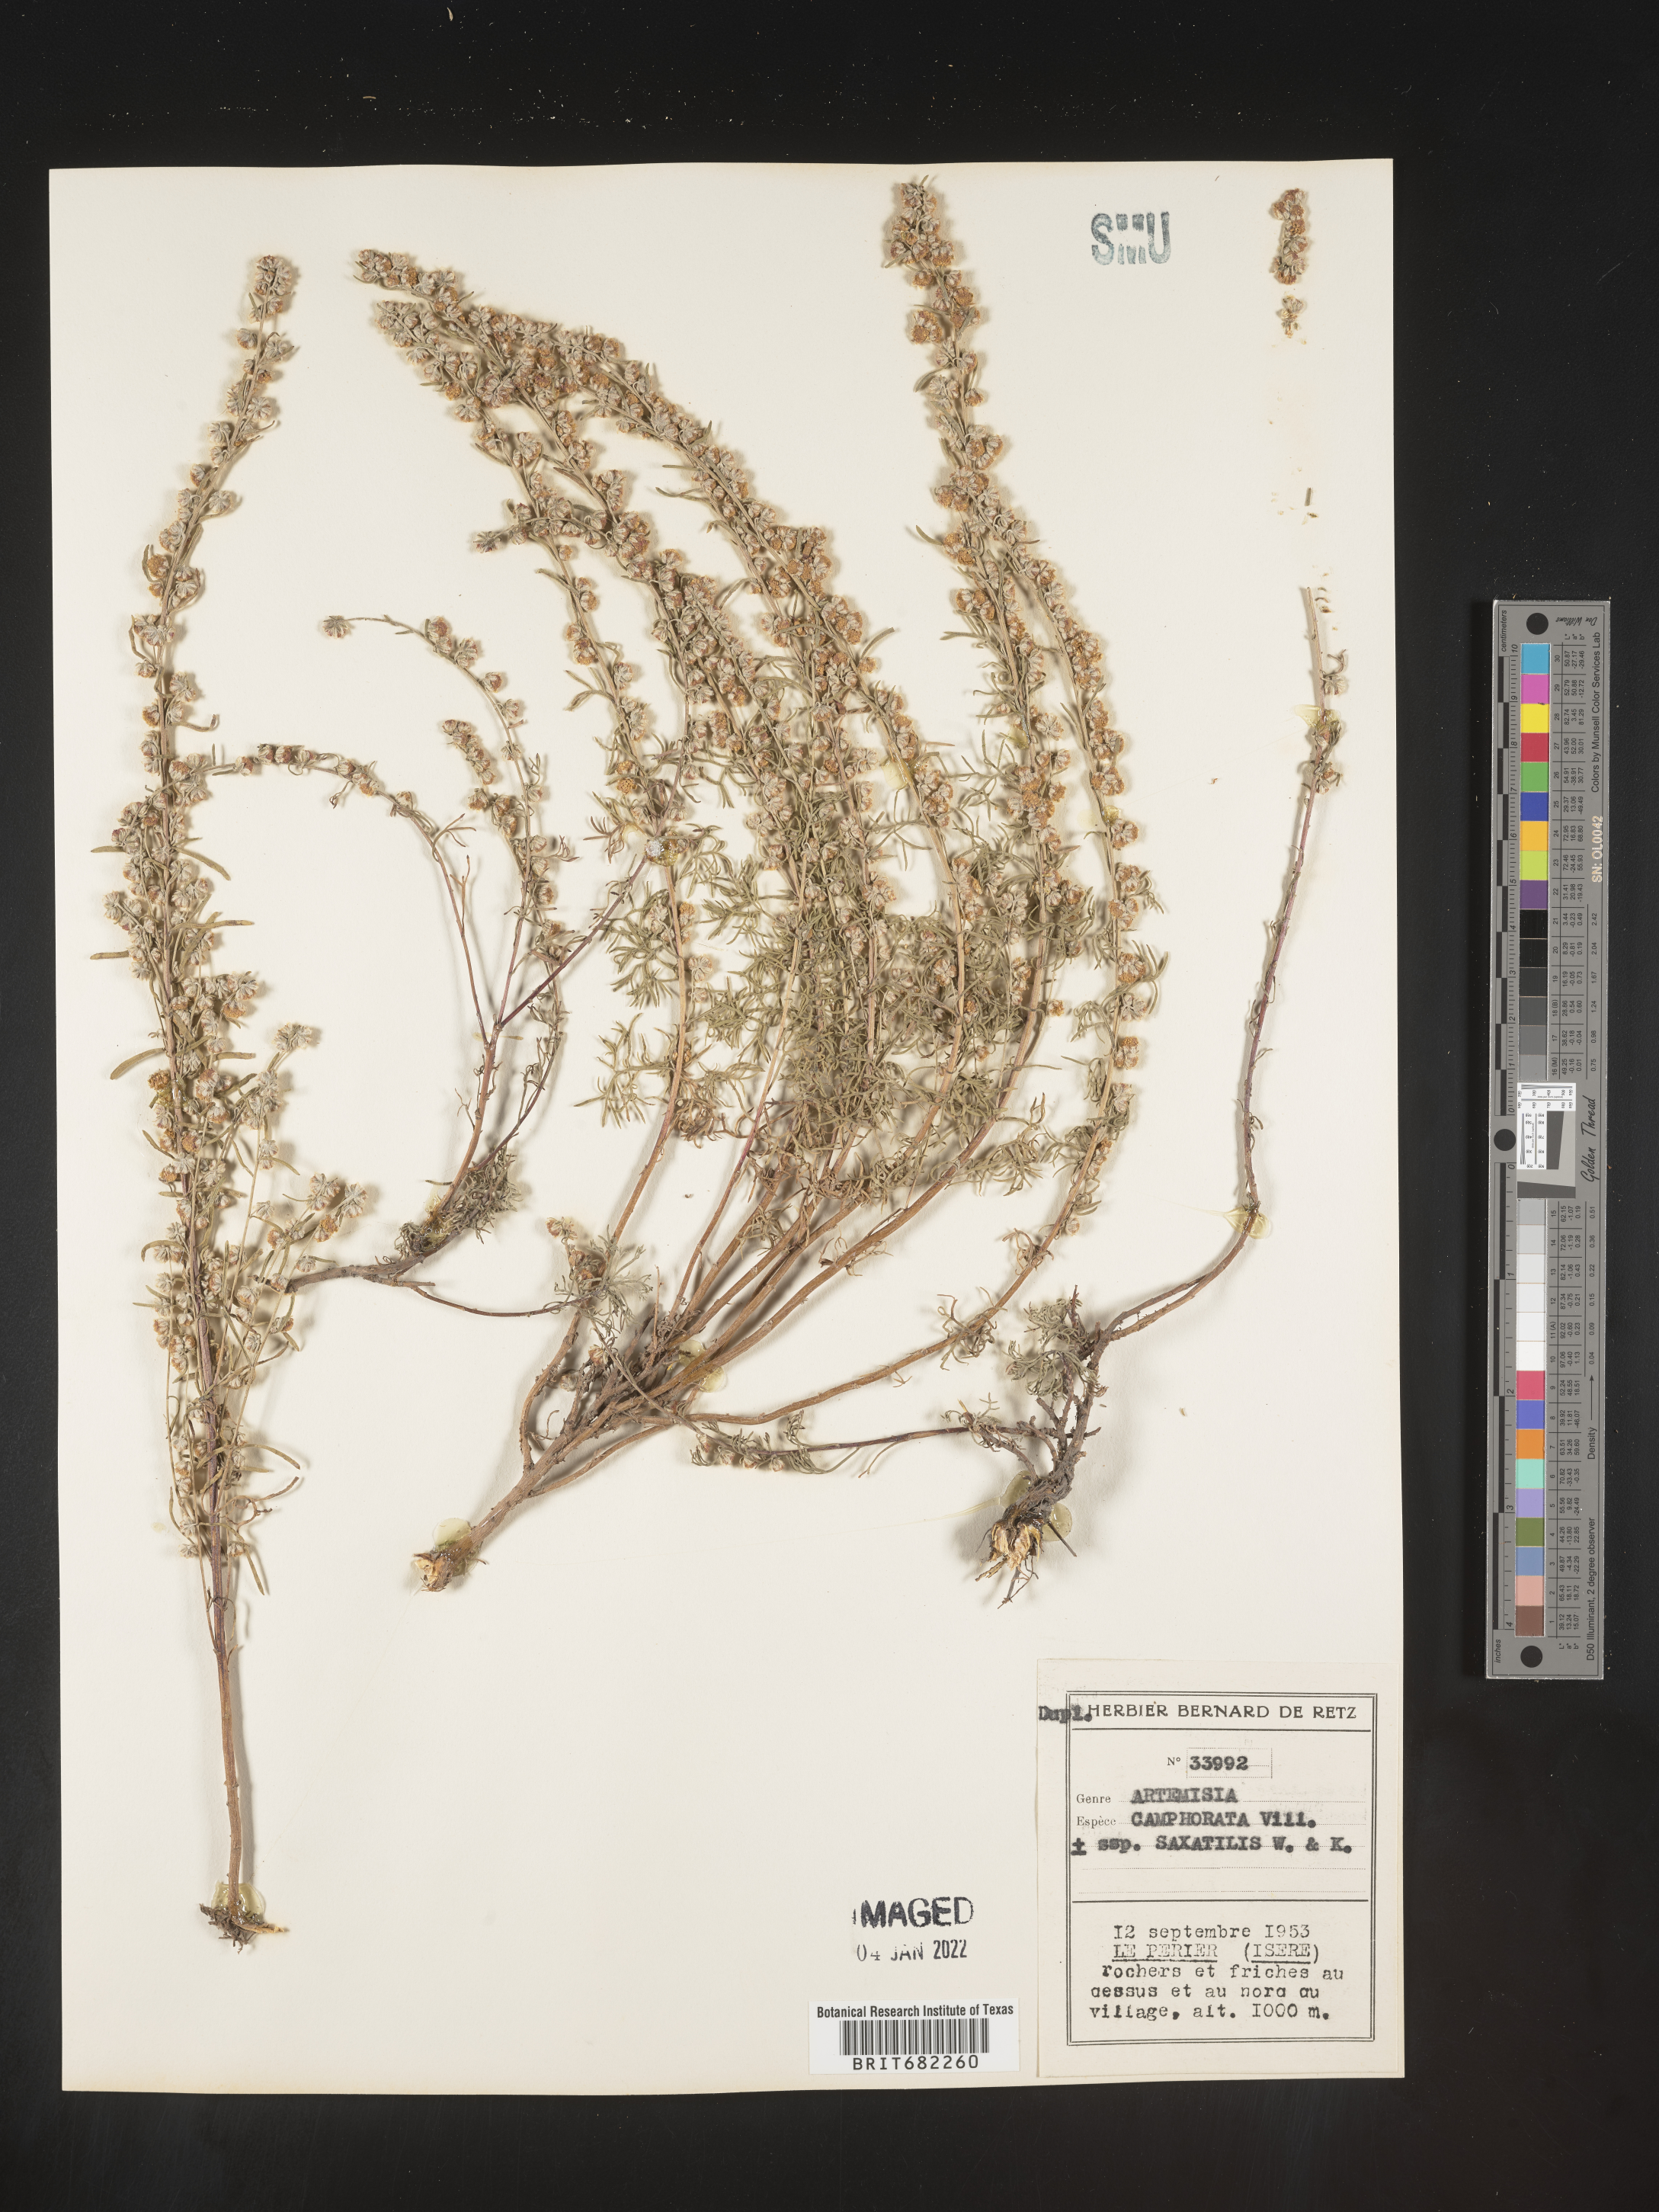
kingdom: Plantae
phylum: Tracheophyta
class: Magnoliopsida
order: Asterales
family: Asteraceae
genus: Artemisia
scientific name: Artemisia
